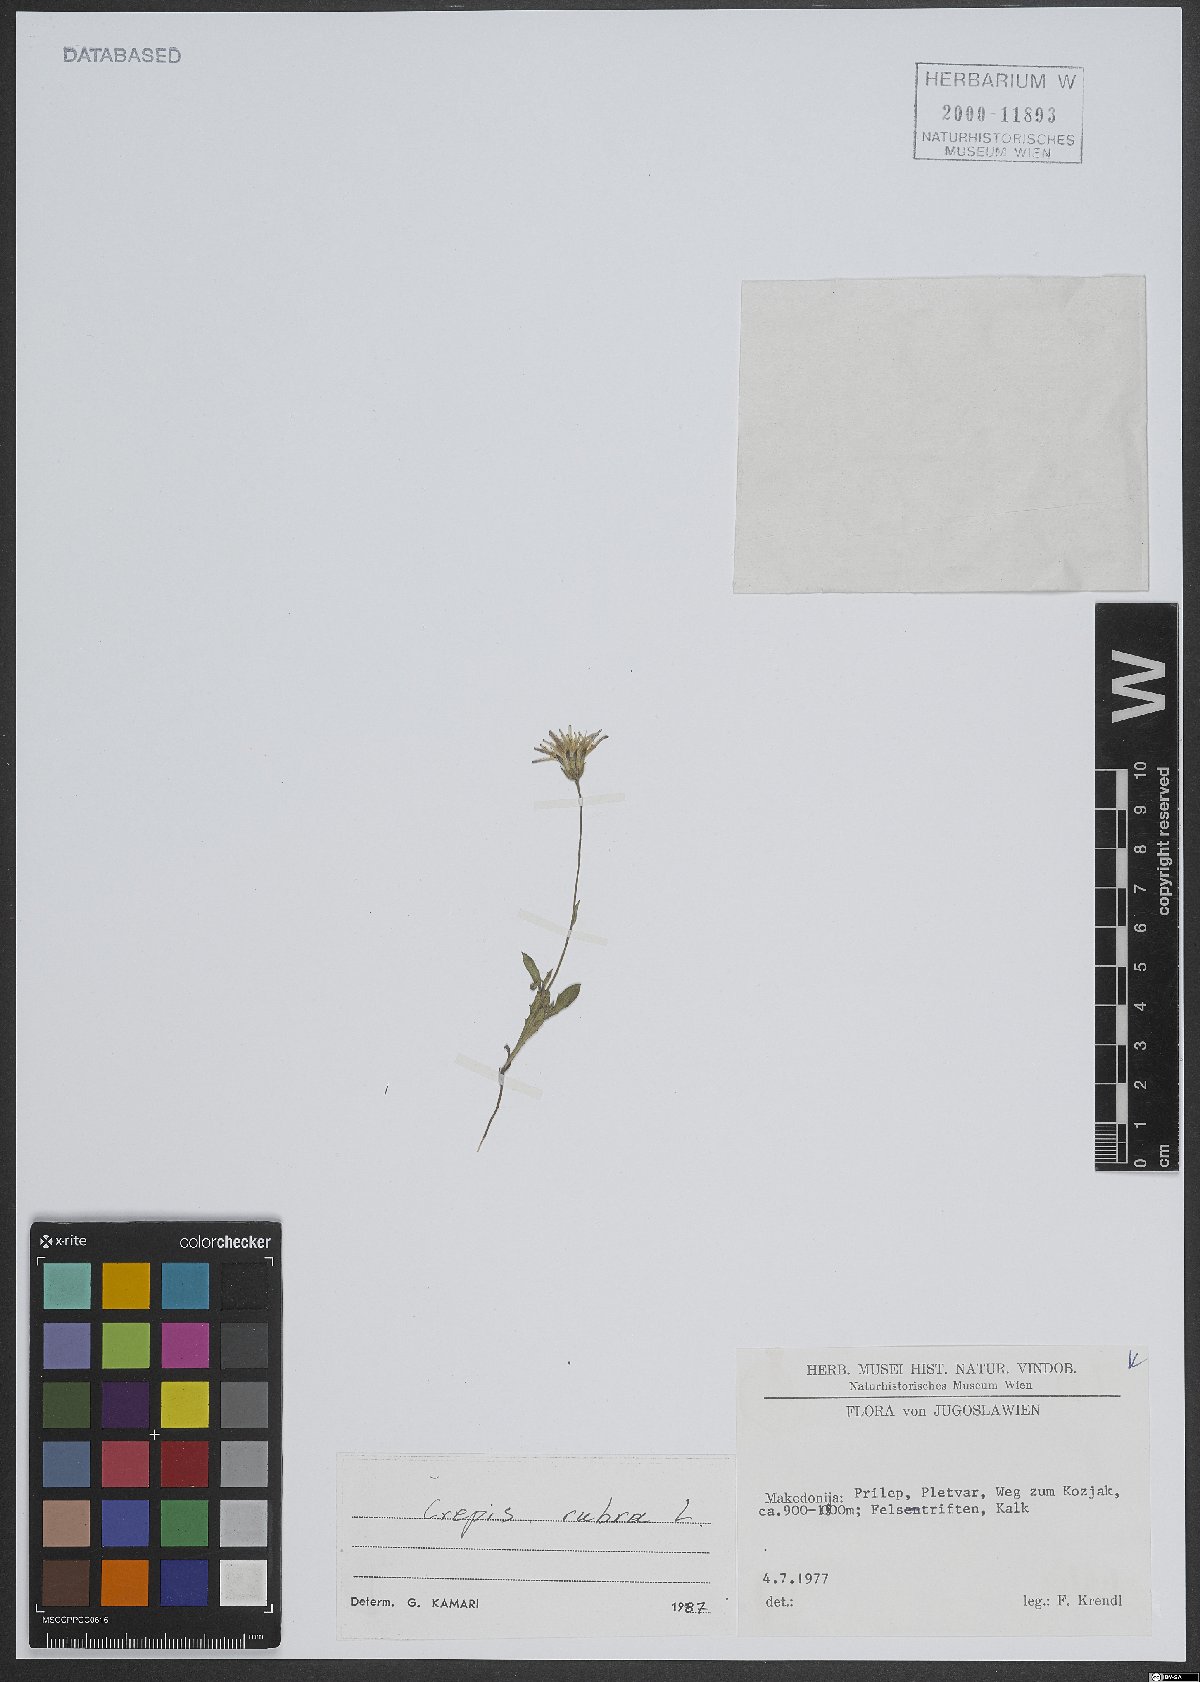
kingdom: Plantae
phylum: Tracheophyta
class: Magnoliopsida
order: Asterales
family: Asteraceae
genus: Crepis
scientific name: Crepis rubra
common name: Pink hawk's-beard
